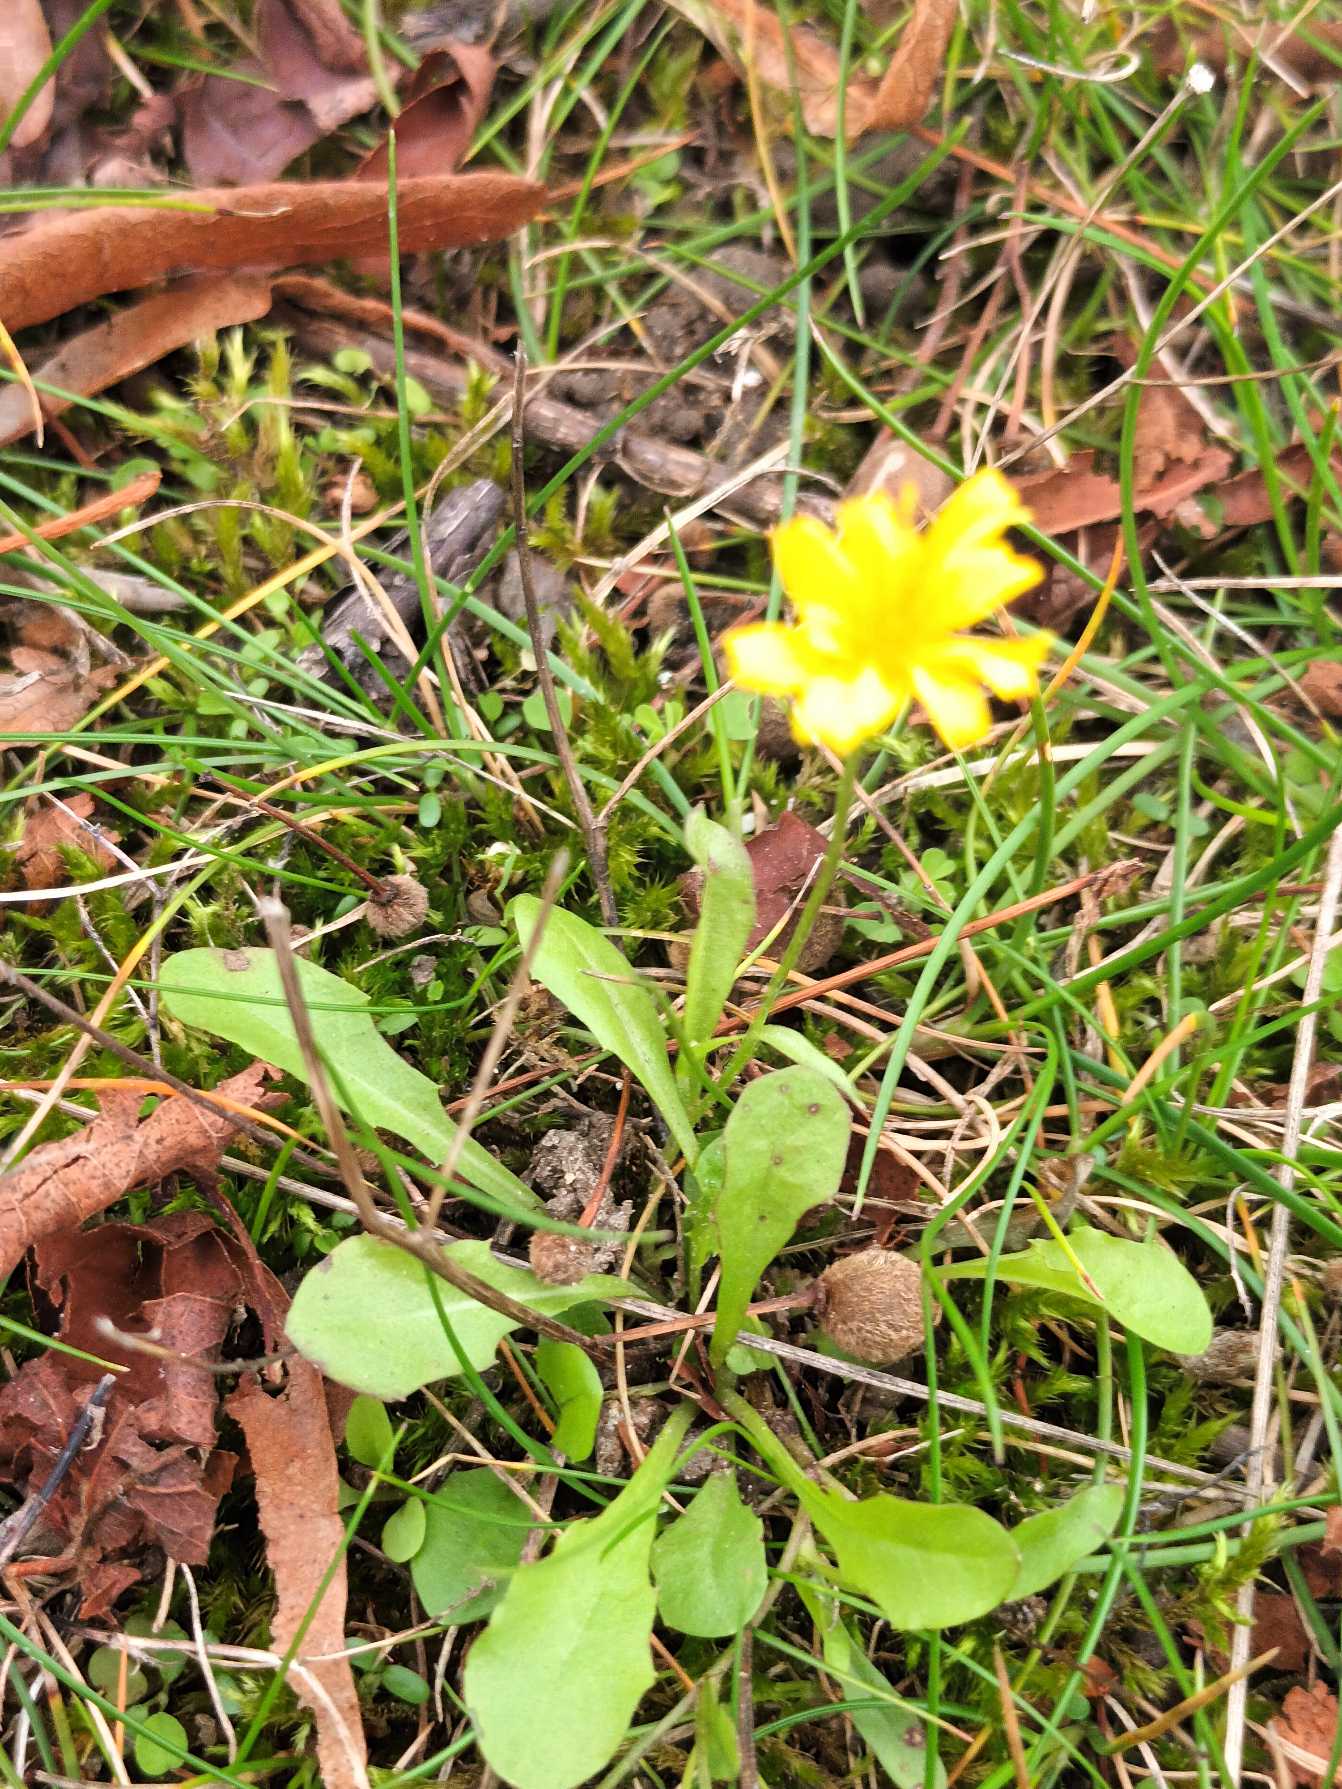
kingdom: Plantae
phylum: Tracheophyta
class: Magnoliopsida
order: Asterales
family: Asteraceae
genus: Crepis
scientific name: Crepis capillaris
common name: Grøn høgeskæg
